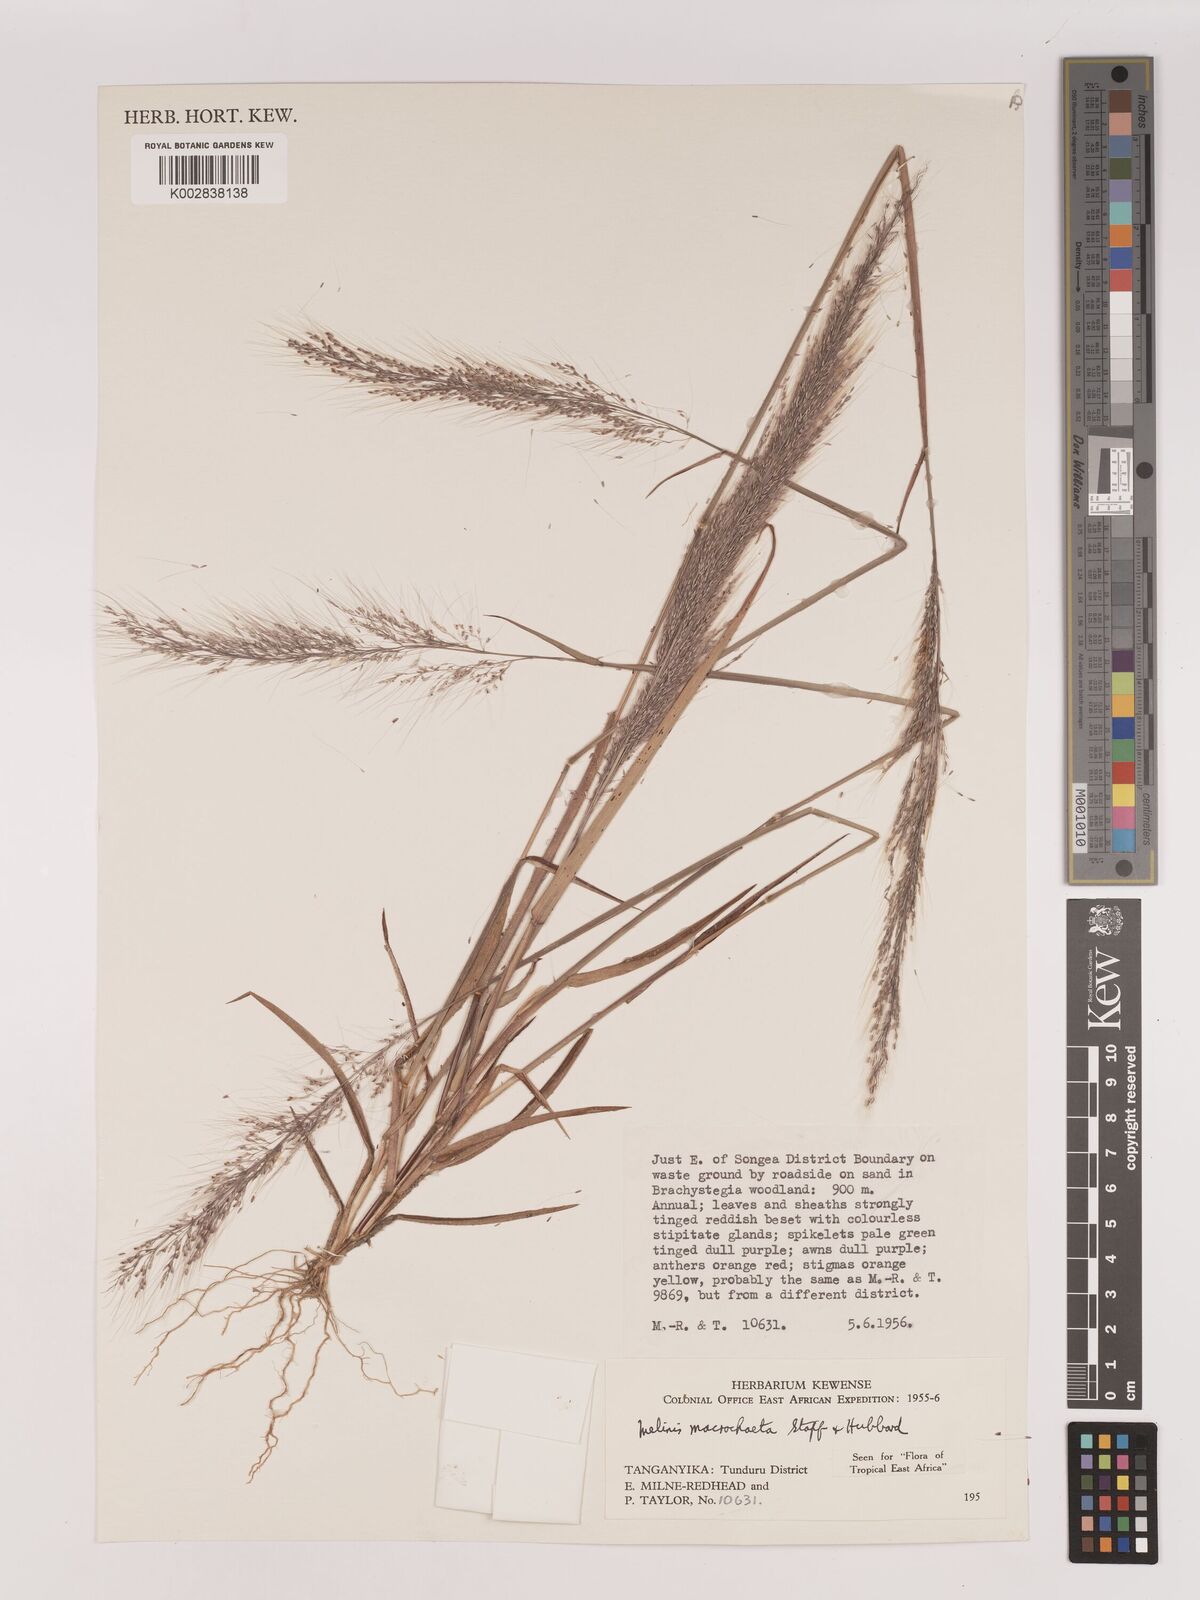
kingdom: Plantae
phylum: Tracheophyta
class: Liliopsida
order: Poales
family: Poaceae
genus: Melinis
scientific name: Melinis macrochaeta
